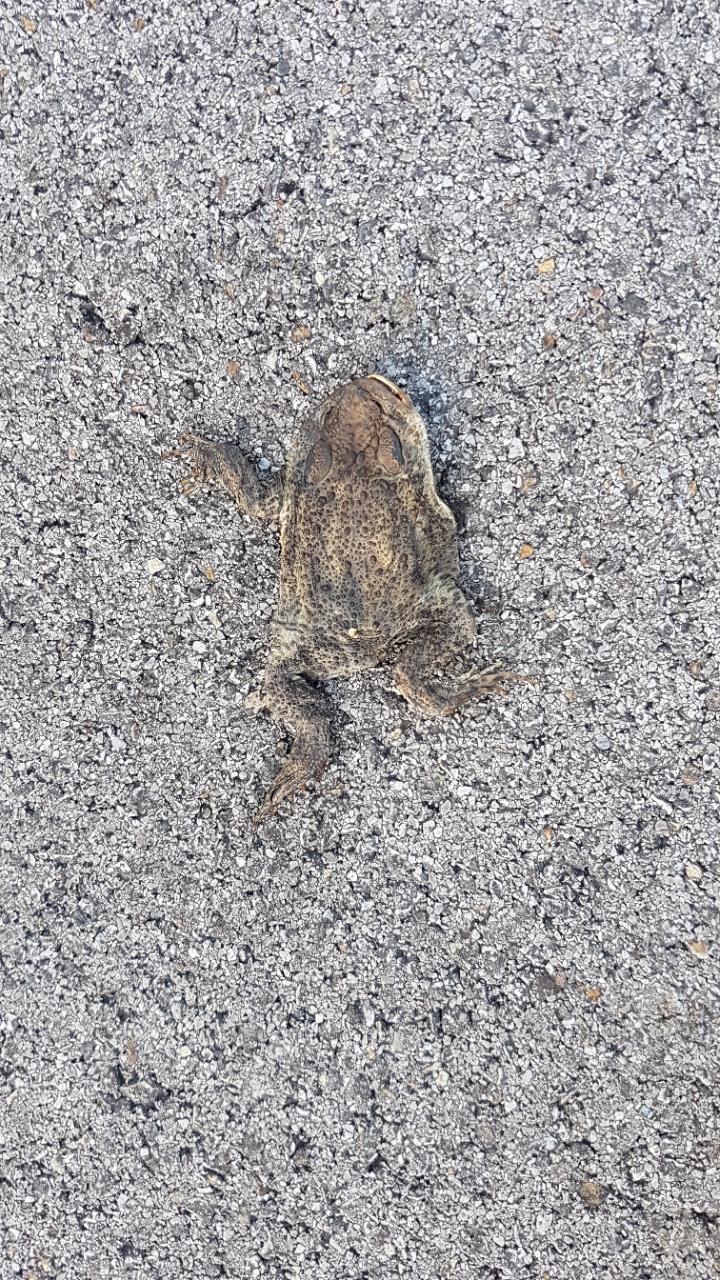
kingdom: Animalia
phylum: Chordata
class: Amphibia
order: Anura
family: Bufonidae
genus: Bufo
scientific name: Bufo bufo
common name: Common toad
